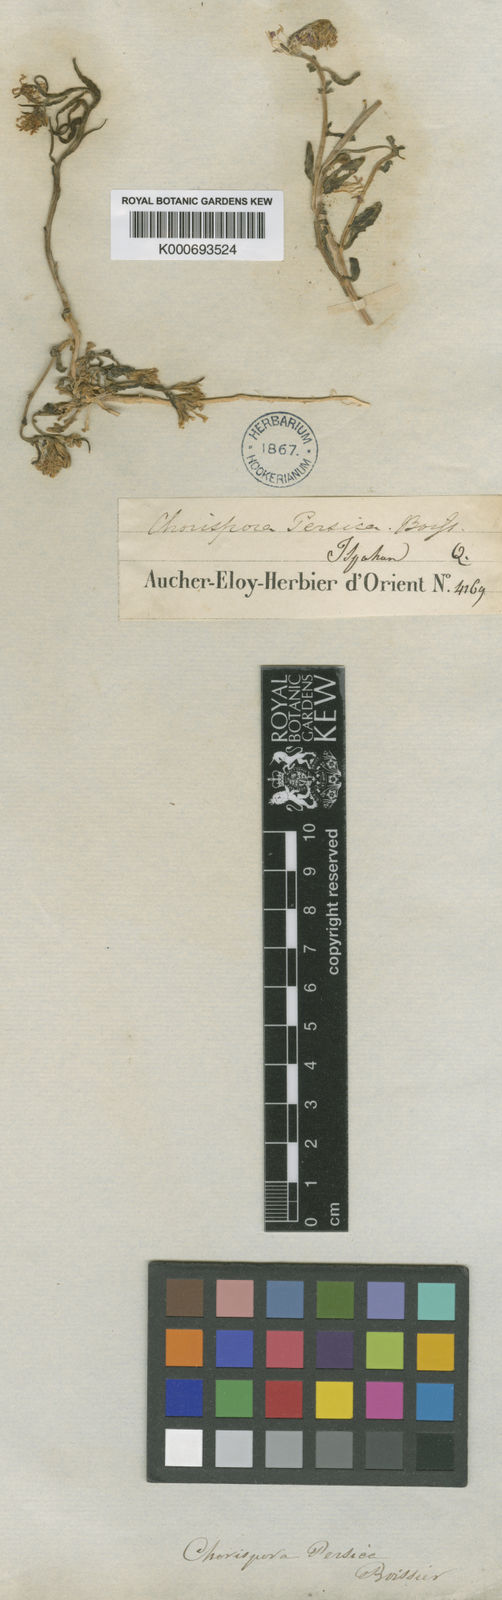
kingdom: Plantae
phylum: Tracheophyta
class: Magnoliopsida
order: Brassicales
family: Brassicaceae
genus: Chorispora
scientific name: Chorispora persica
